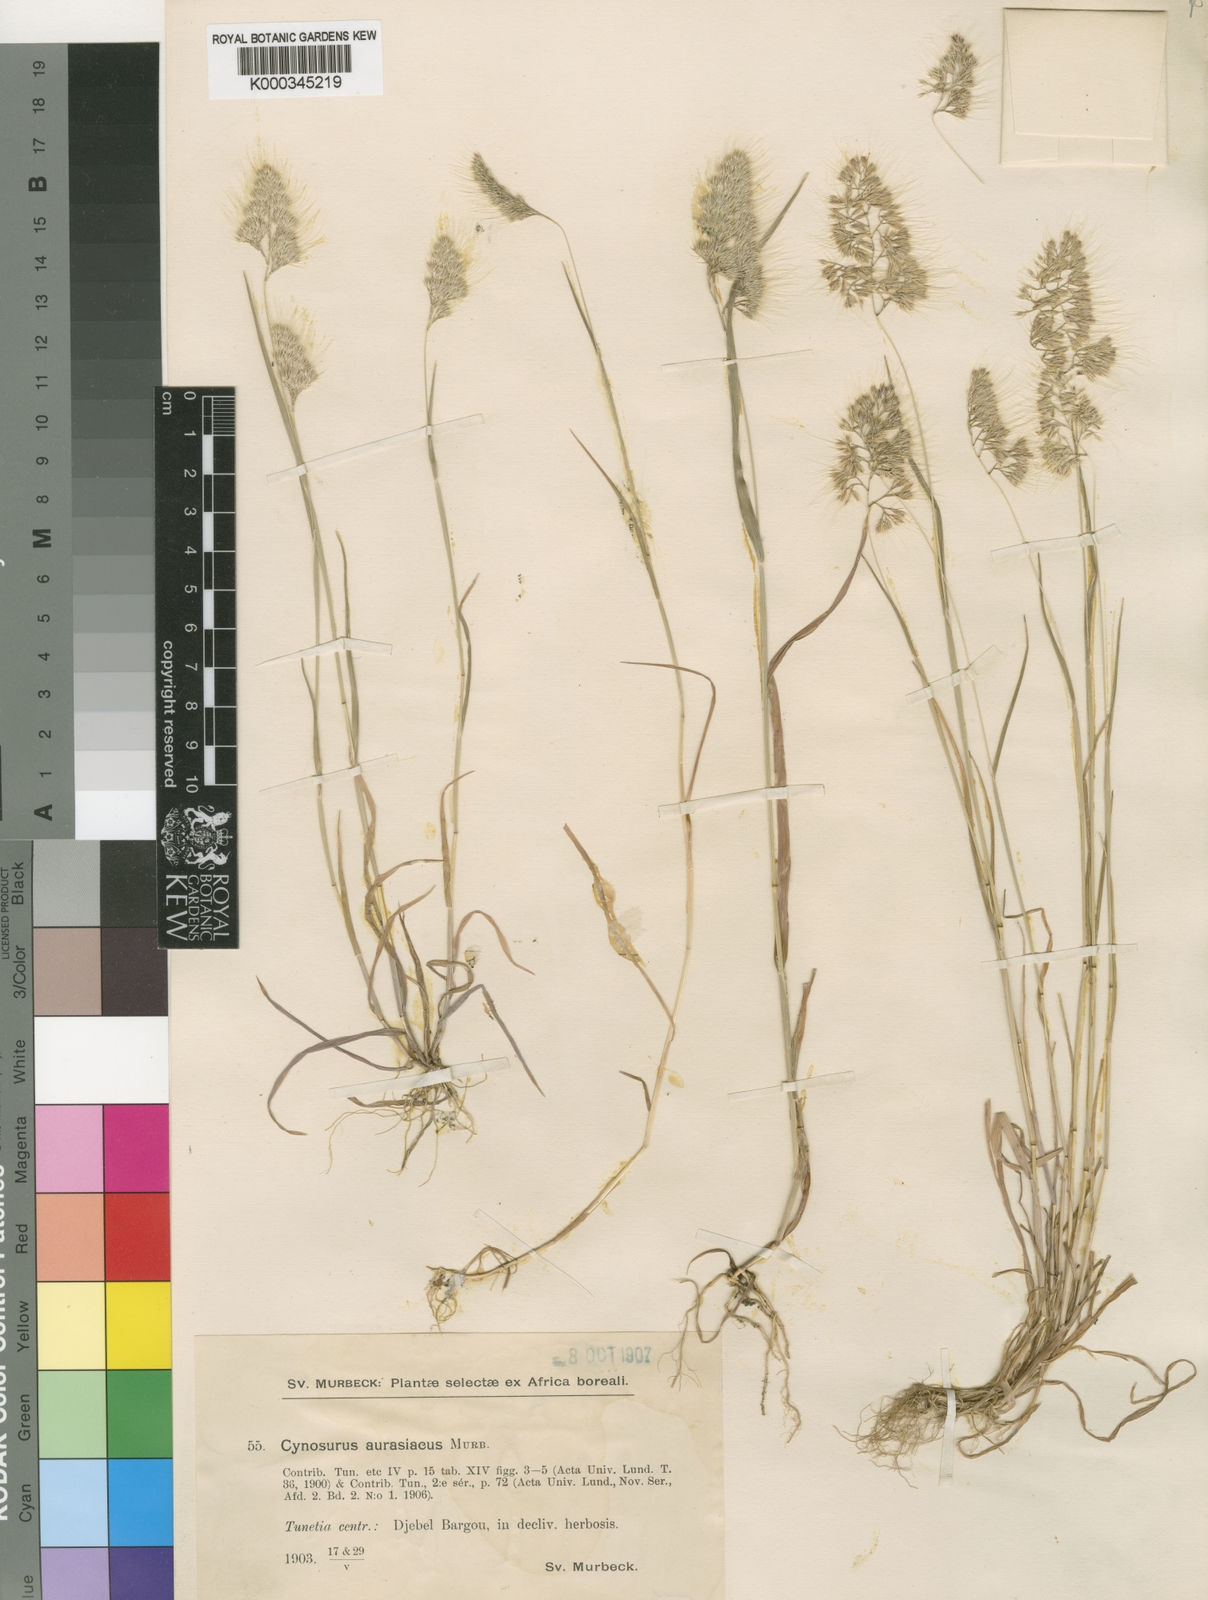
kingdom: Plantae
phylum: Tracheophyta
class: Liliopsida
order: Poales
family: Poaceae
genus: Cynosurus
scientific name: Cynosurus elegans
